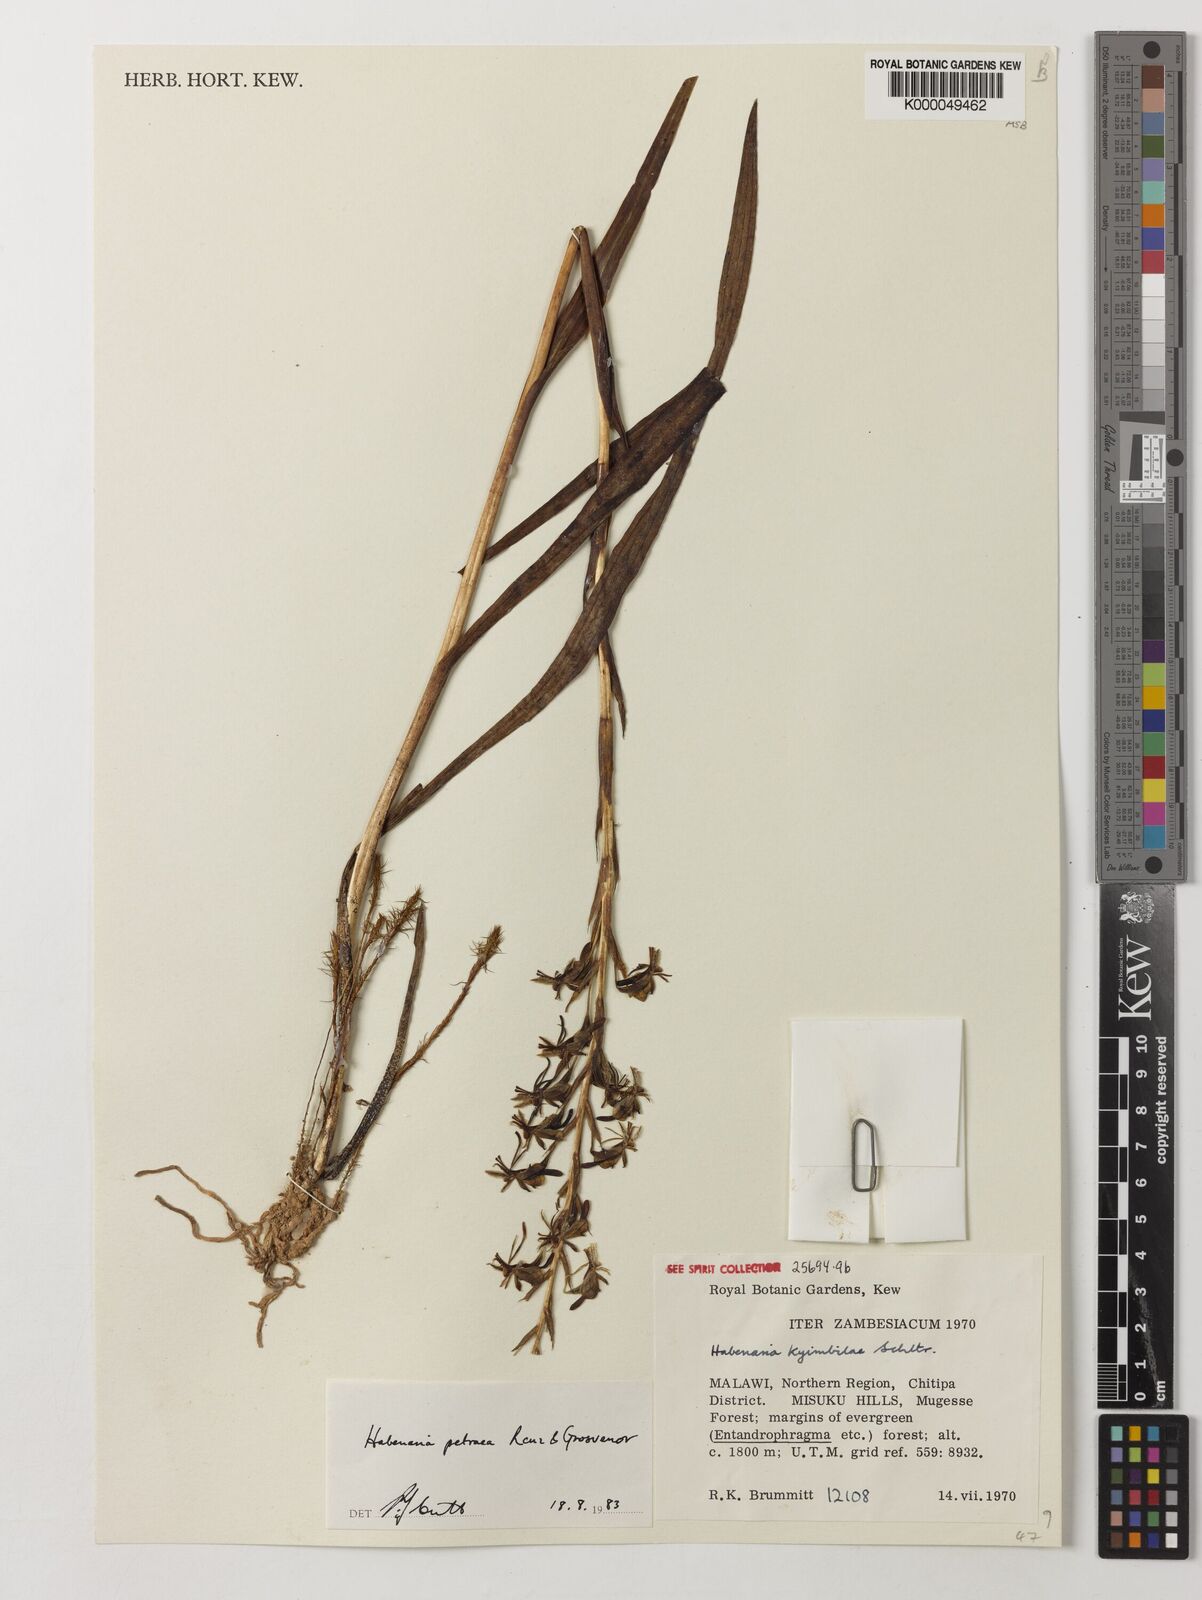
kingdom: Plantae
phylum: Tracheophyta
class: Liliopsida
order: Asparagales
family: Orchidaceae
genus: Habenaria
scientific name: Habenaria petraea
